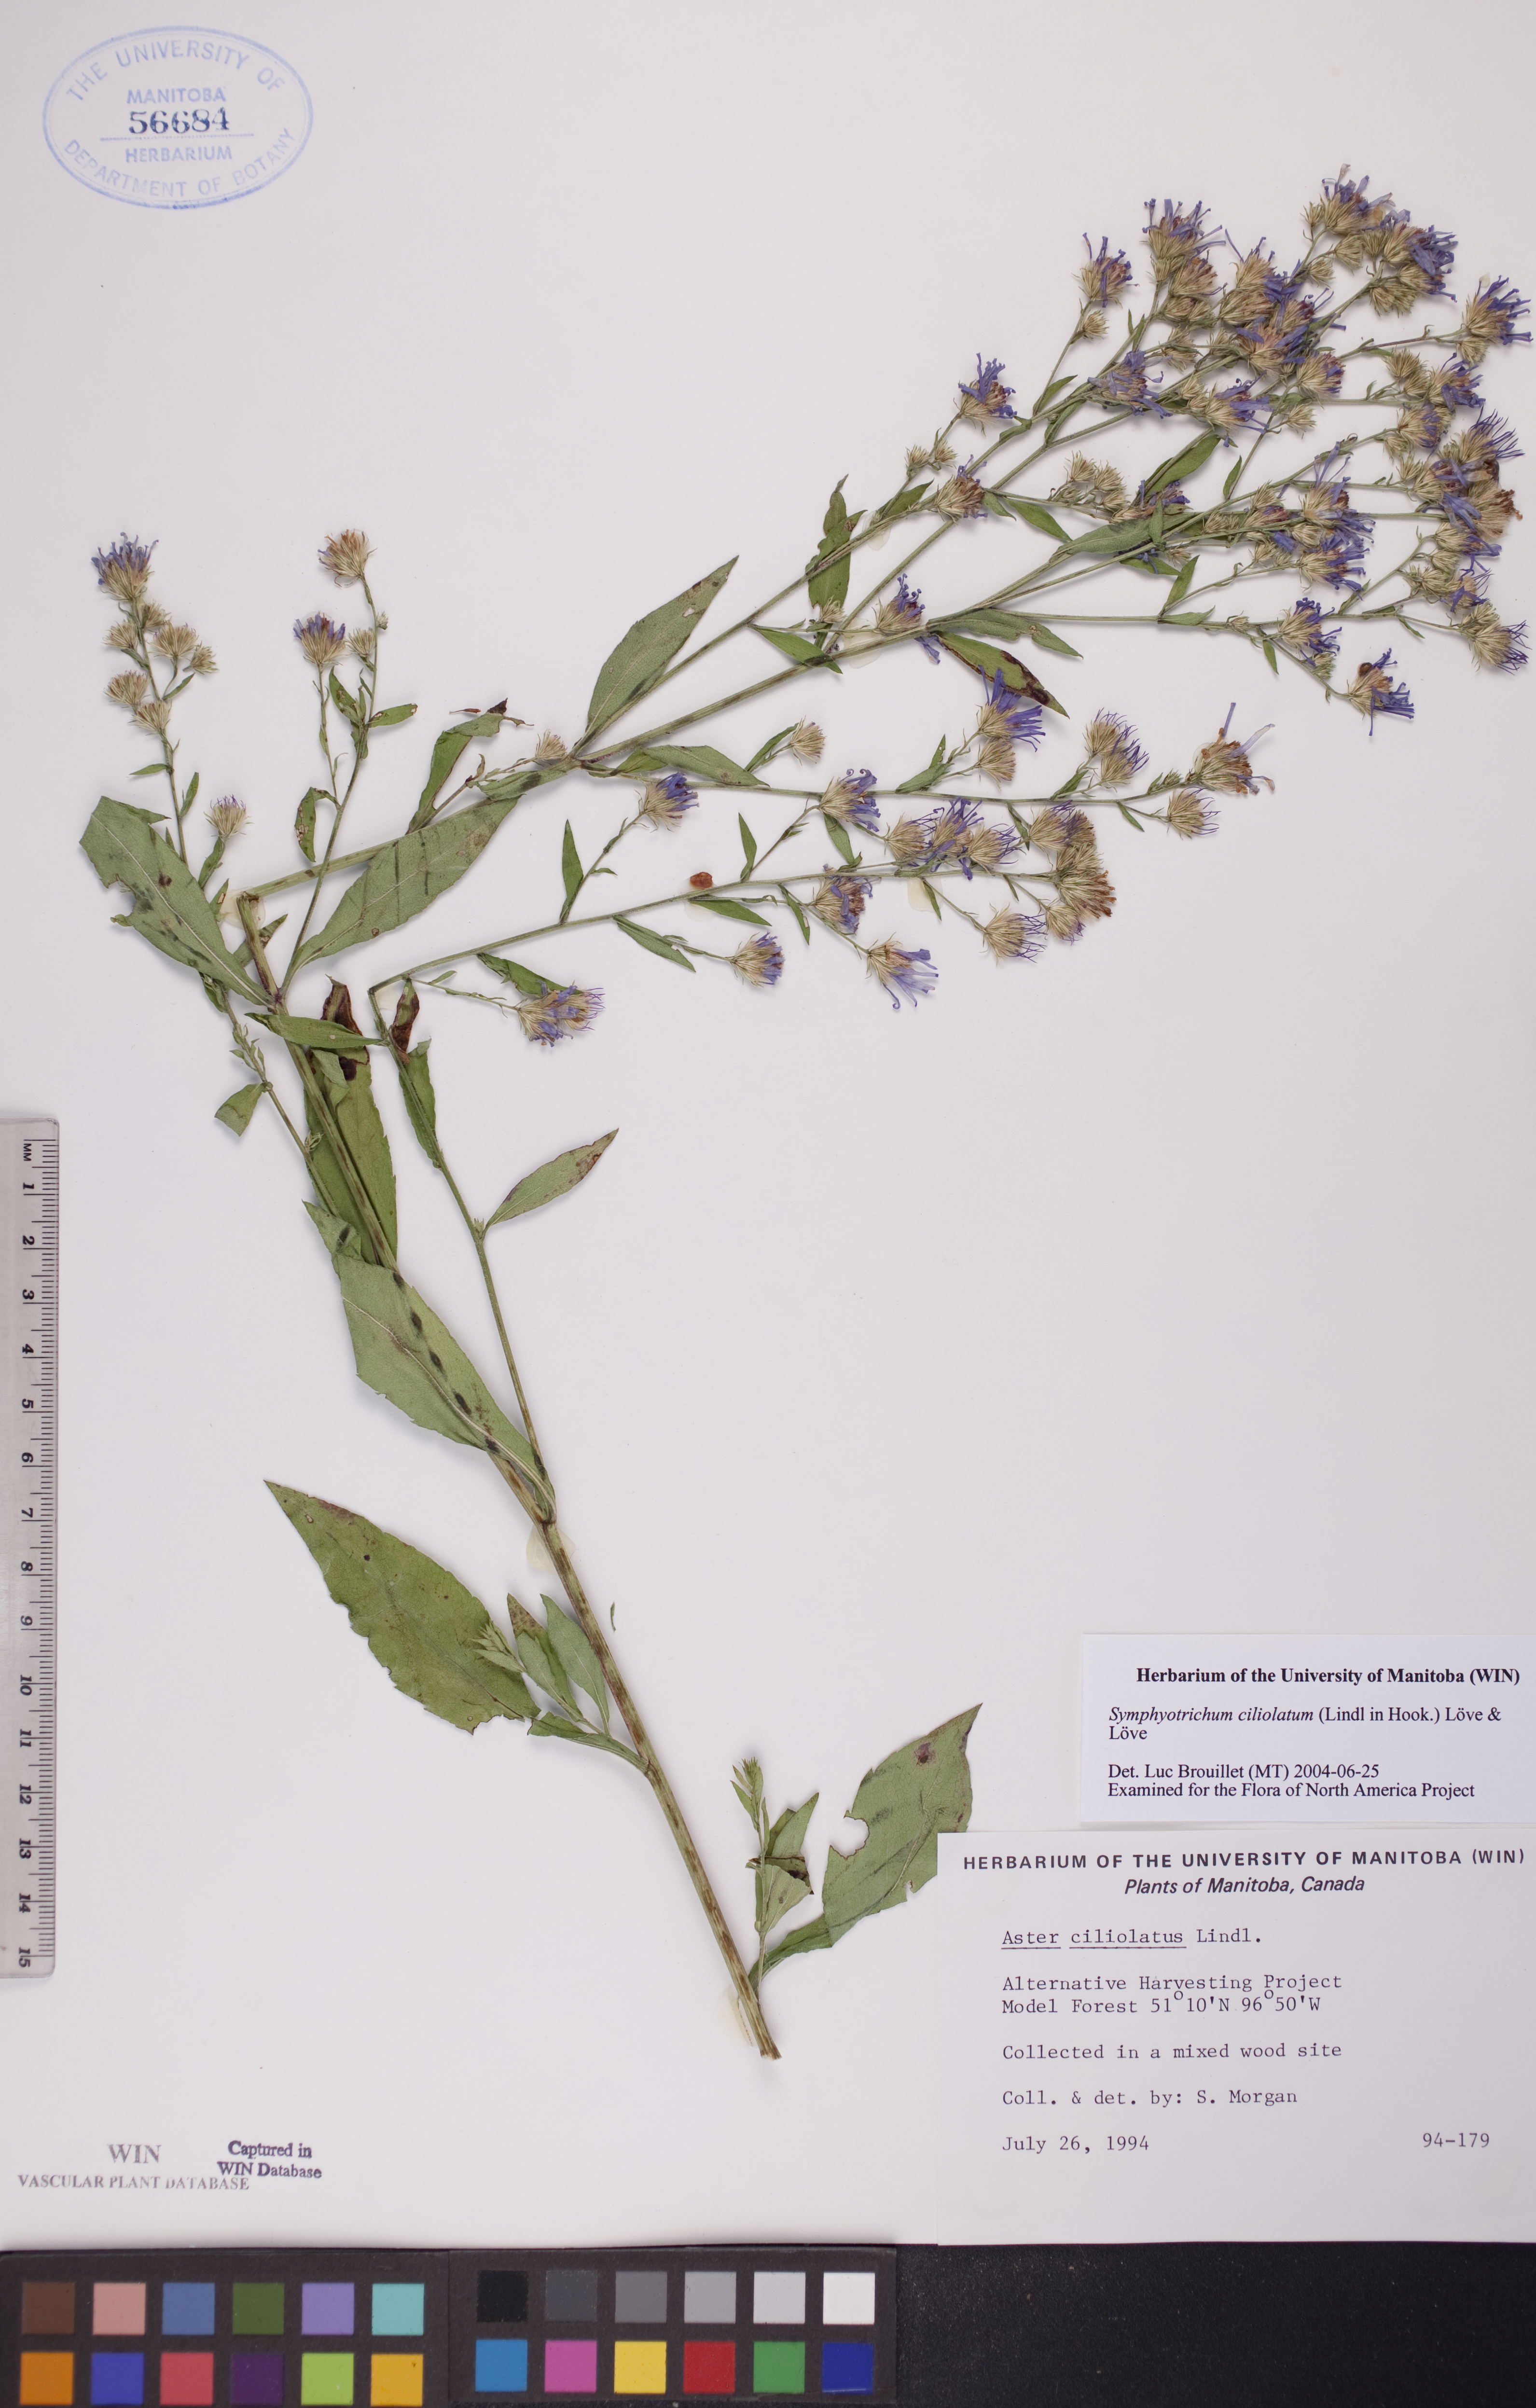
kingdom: Plantae
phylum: Tracheophyta
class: Magnoliopsida
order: Asterales
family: Asteraceae
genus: Symphyotrichum
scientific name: Symphyotrichum ciliolatum
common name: Fringed blue aster
